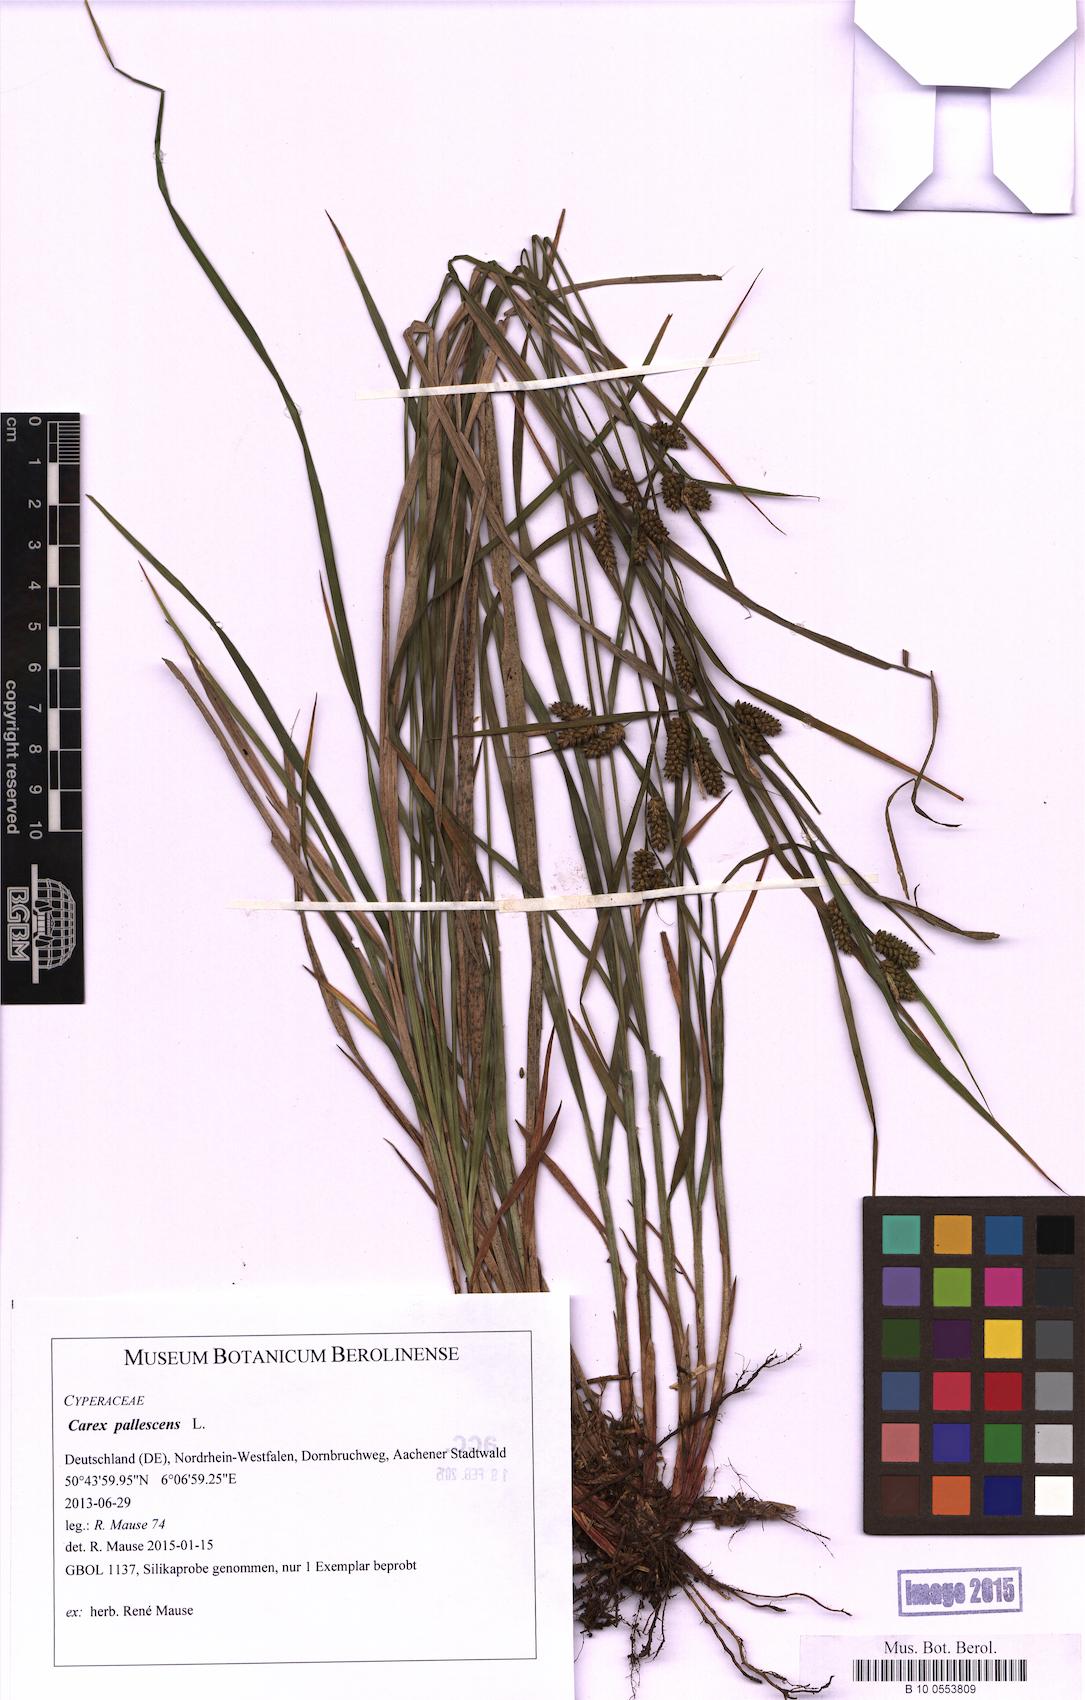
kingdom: Plantae
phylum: Tracheophyta
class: Liliopsida
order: Poales
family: Cyperaceae
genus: Carex
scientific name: Carex pallescens
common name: Pale sedge
